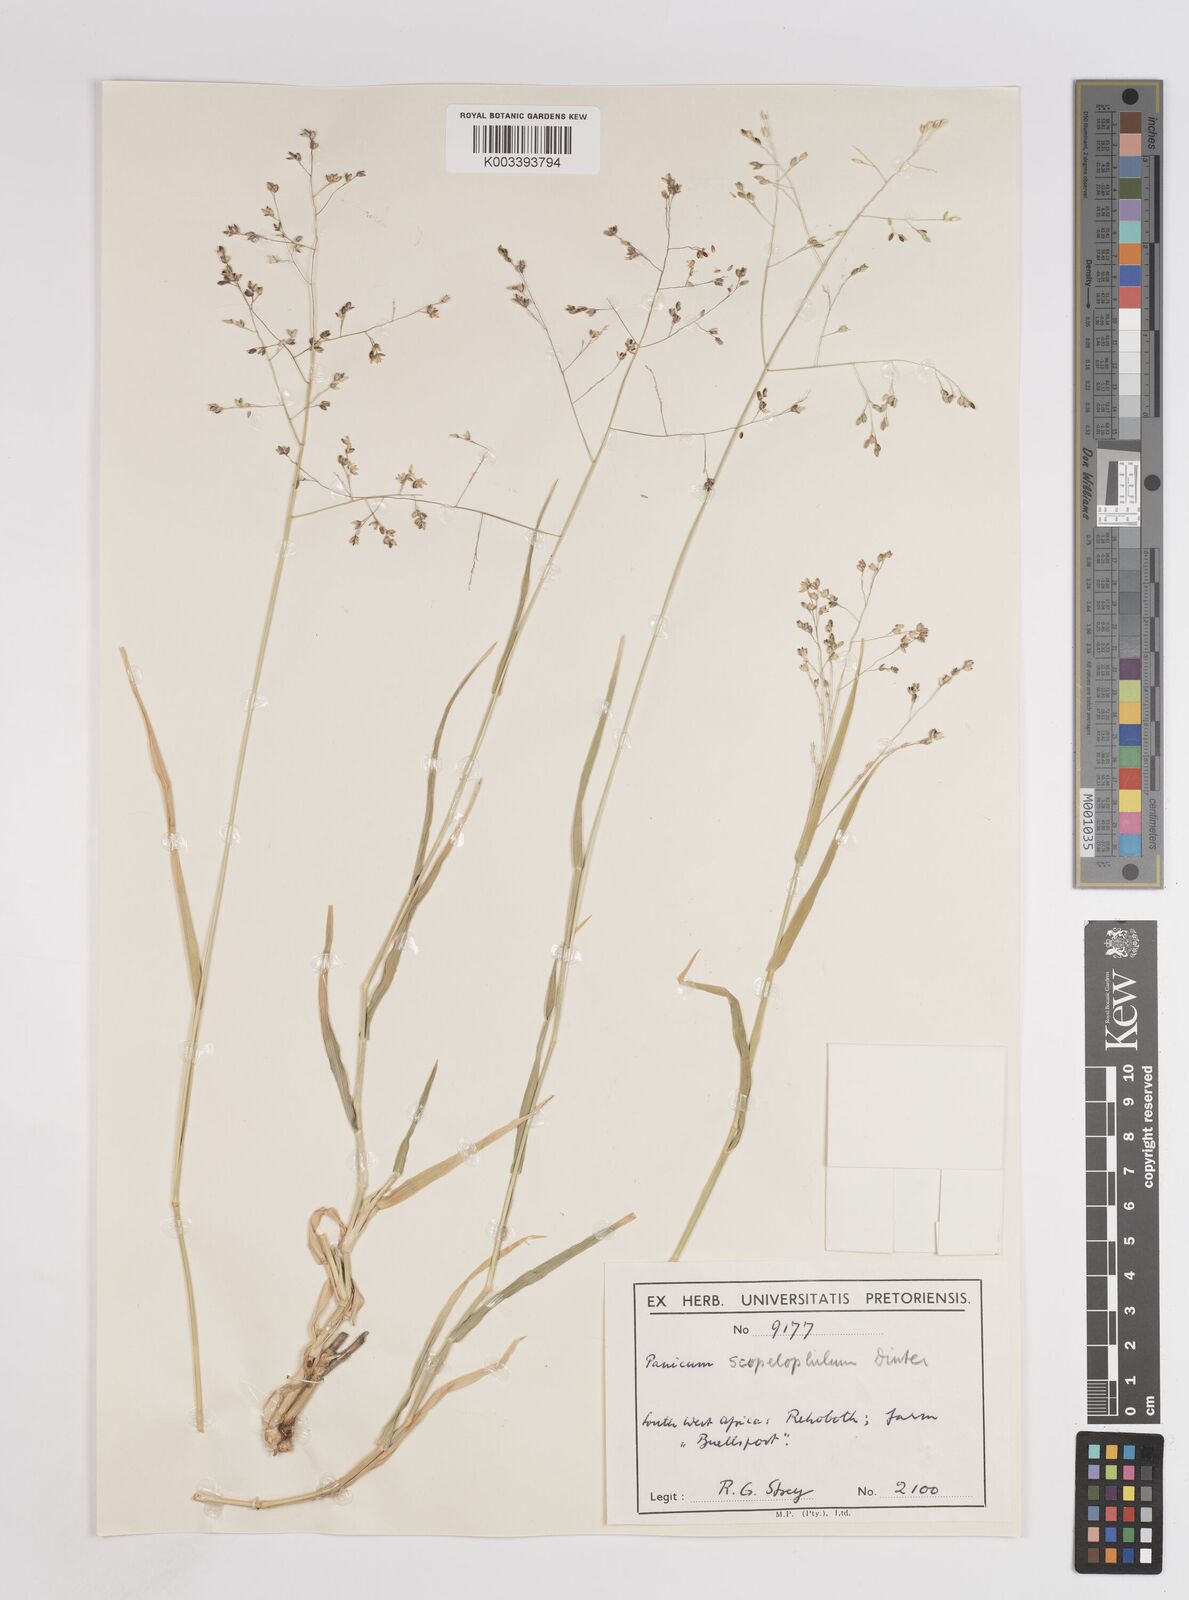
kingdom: Plantae
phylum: Tracheophyta
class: Liliopsida
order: Poales
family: Poaceae
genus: Panicum
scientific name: Panicum
